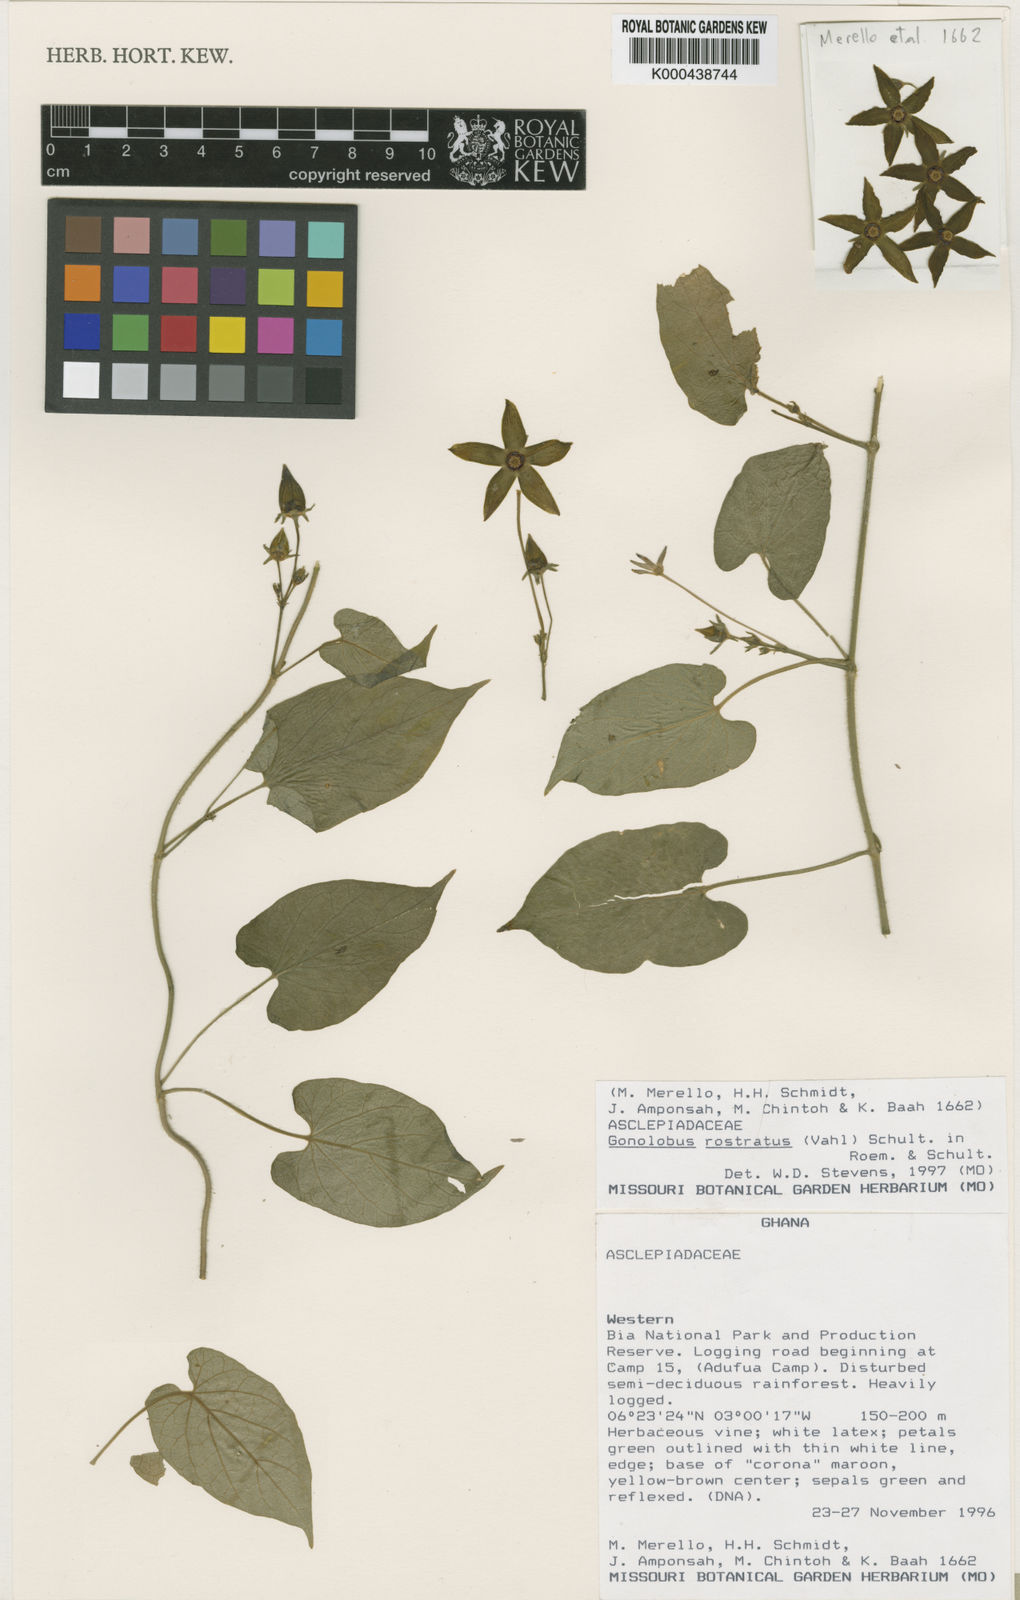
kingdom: Plantae
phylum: Tracheophyta
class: Magnoliopsida
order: Gentianales
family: Apocynaceae
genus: Gonolobus
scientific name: Gonolobus
